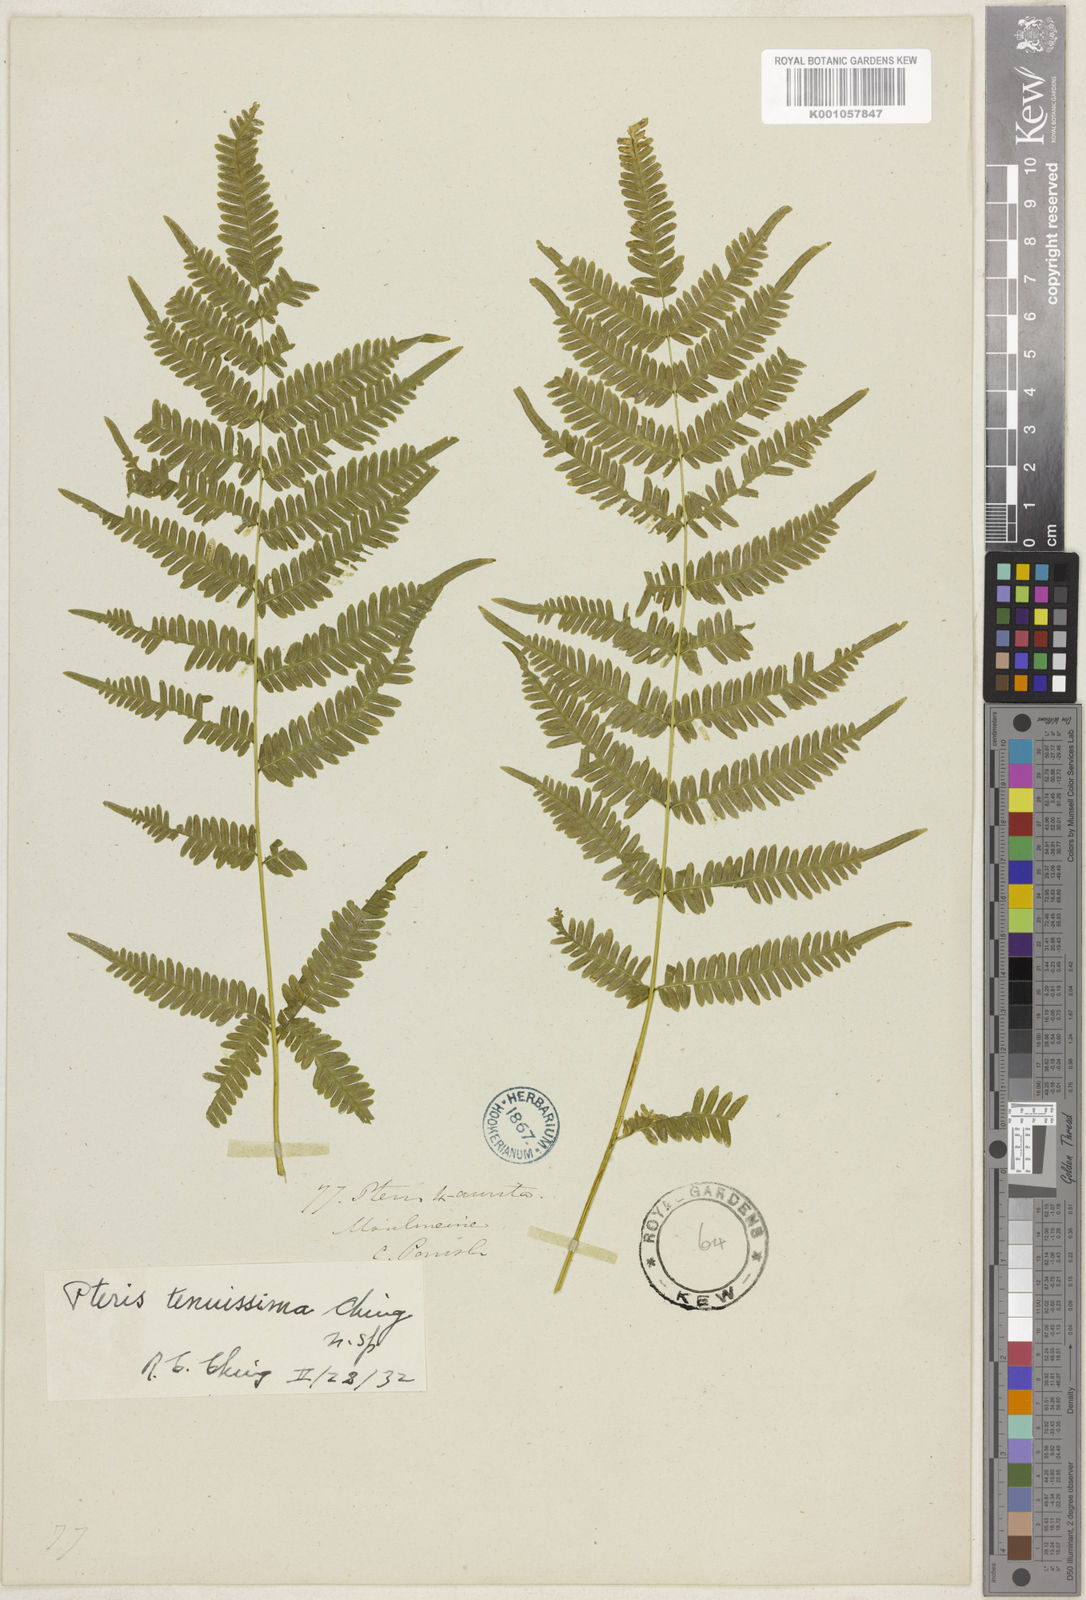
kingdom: Plantae
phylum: Tracheophyta
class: Polypodiopsida
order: Polypodiales
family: Pteridaceae
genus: Pteris
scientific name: Pteris tenuissima
